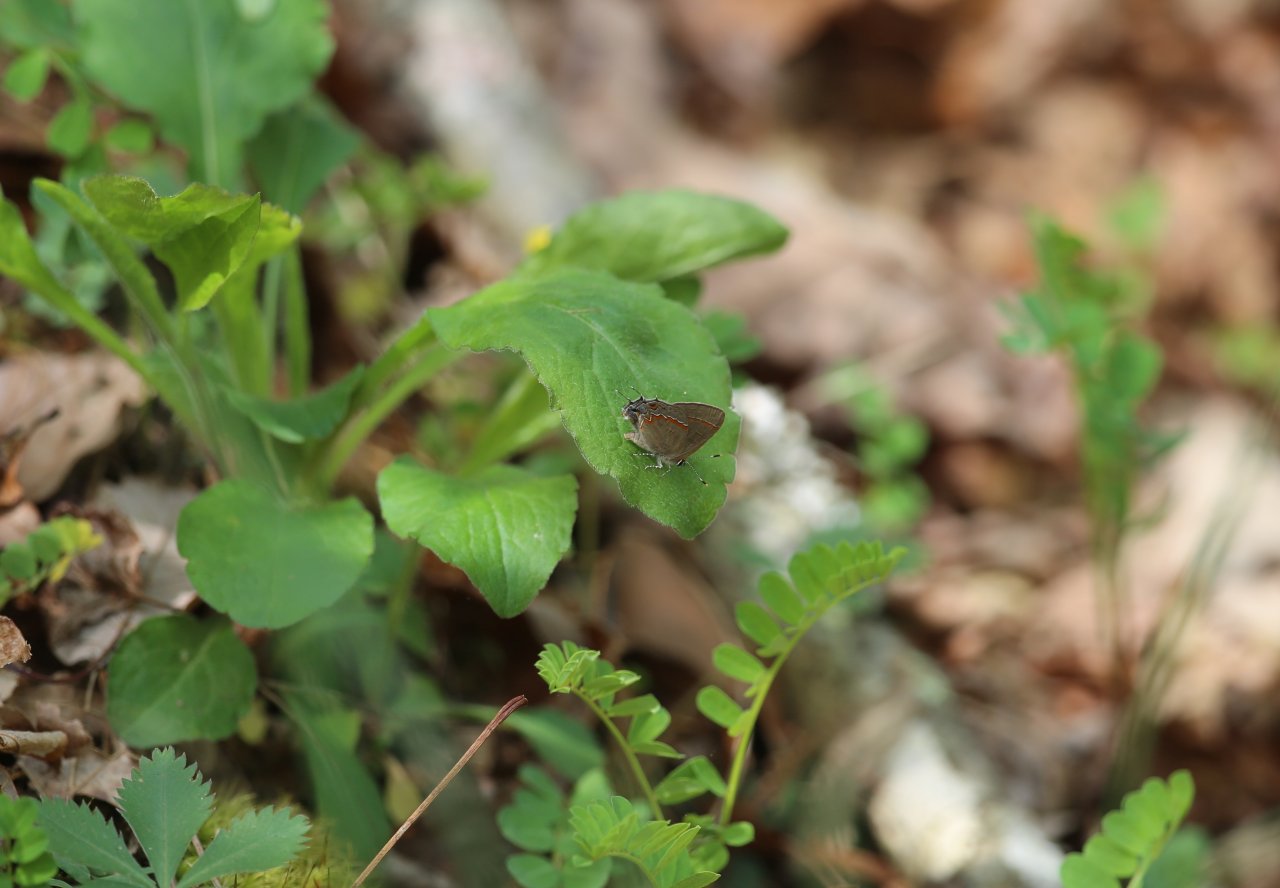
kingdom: Animalia
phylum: Arthropoda
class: Insecta
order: Lepidoptera
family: Lycaenidae
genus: Calycopis
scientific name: Calycopis cecrops
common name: Red-banded Hairstreak
